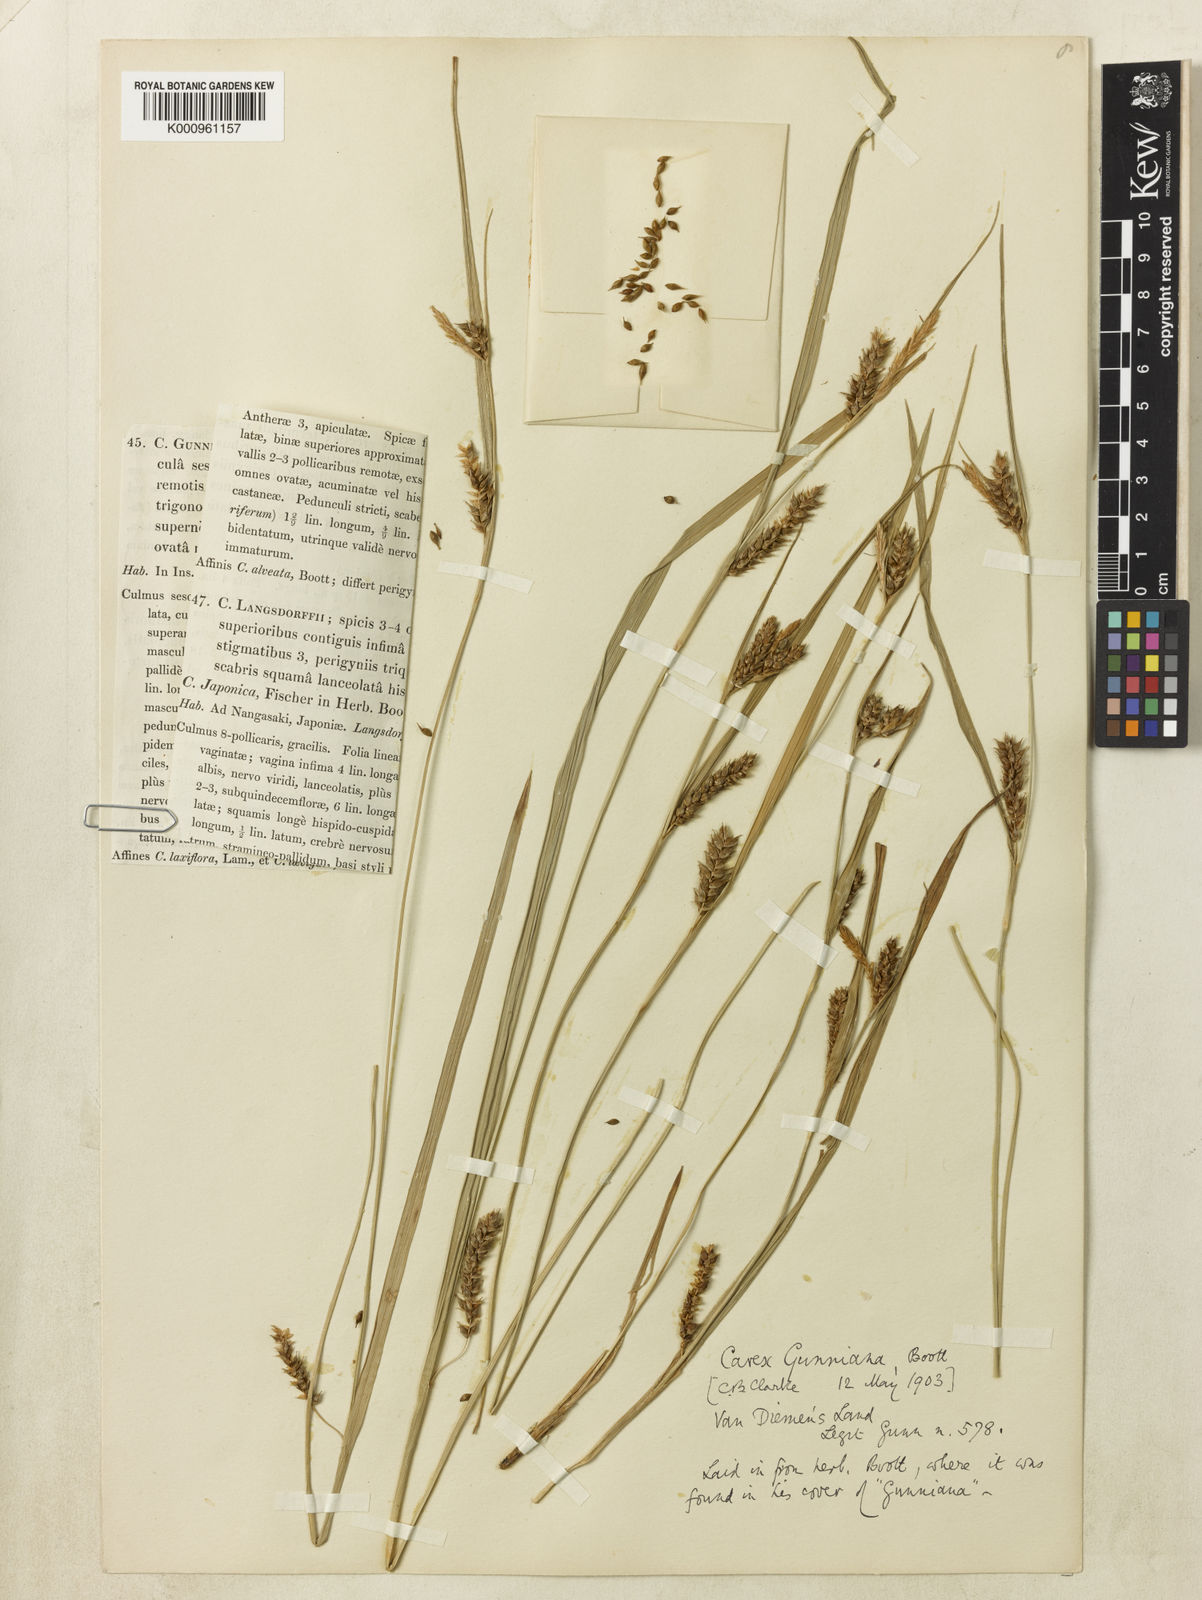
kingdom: Plantae
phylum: Tracheophyta
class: Liliopsida
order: Poales
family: Cyperaceae
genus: Carex
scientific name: Carex gunniana
